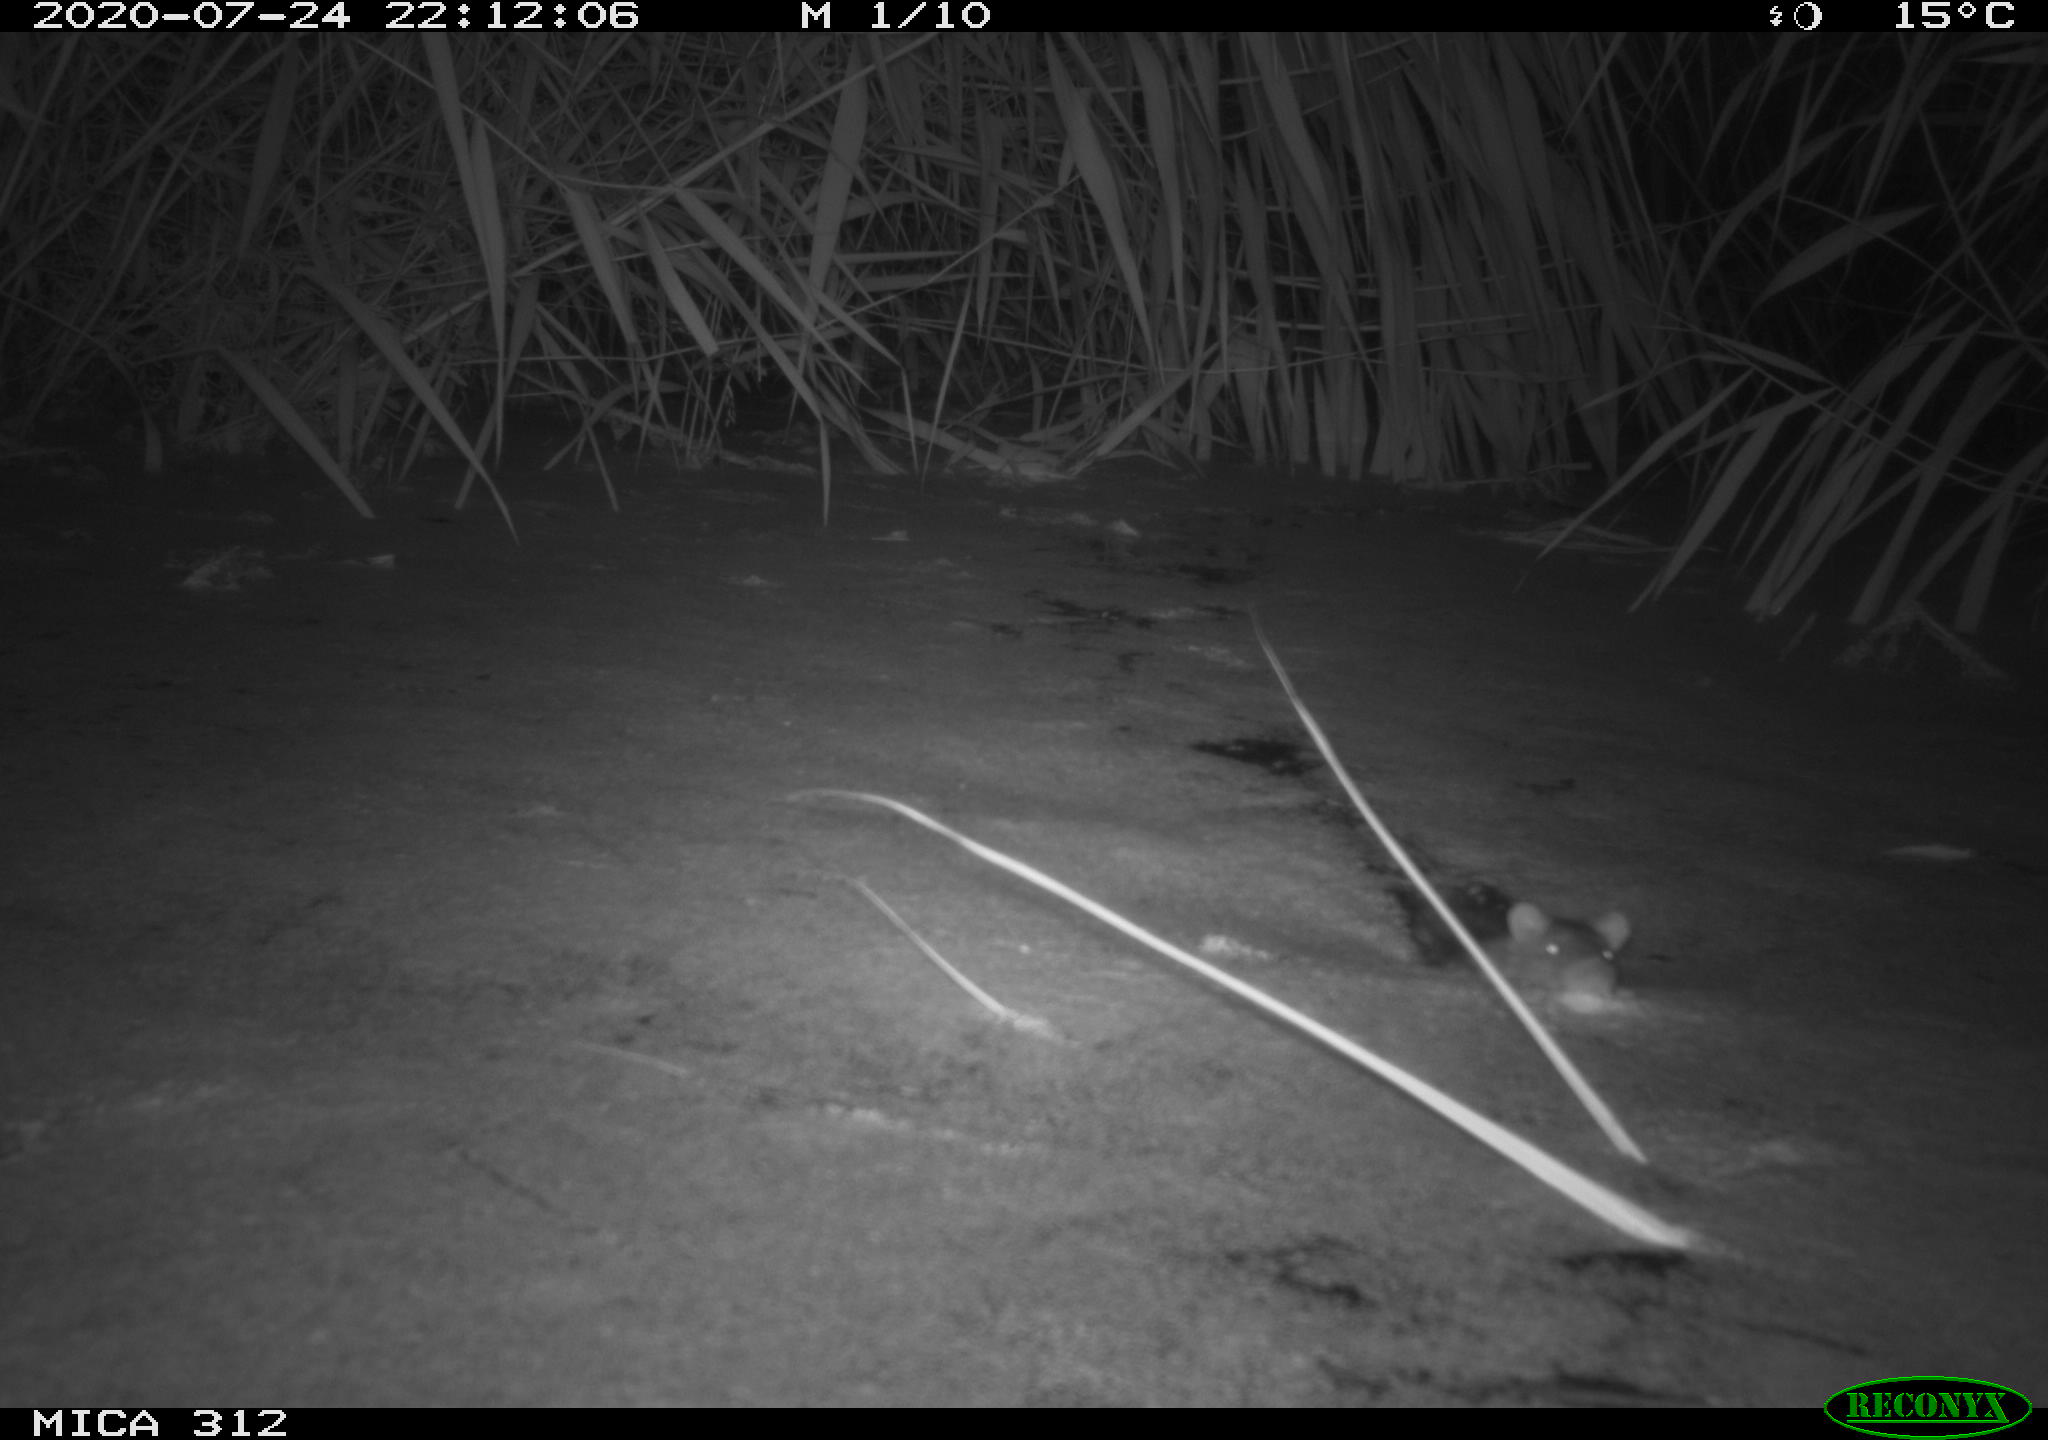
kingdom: Animalia
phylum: Chordata
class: Mammalia
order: Rodentia
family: Muridae
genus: Rattus
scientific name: Rattus norvegicus
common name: Brown rat
